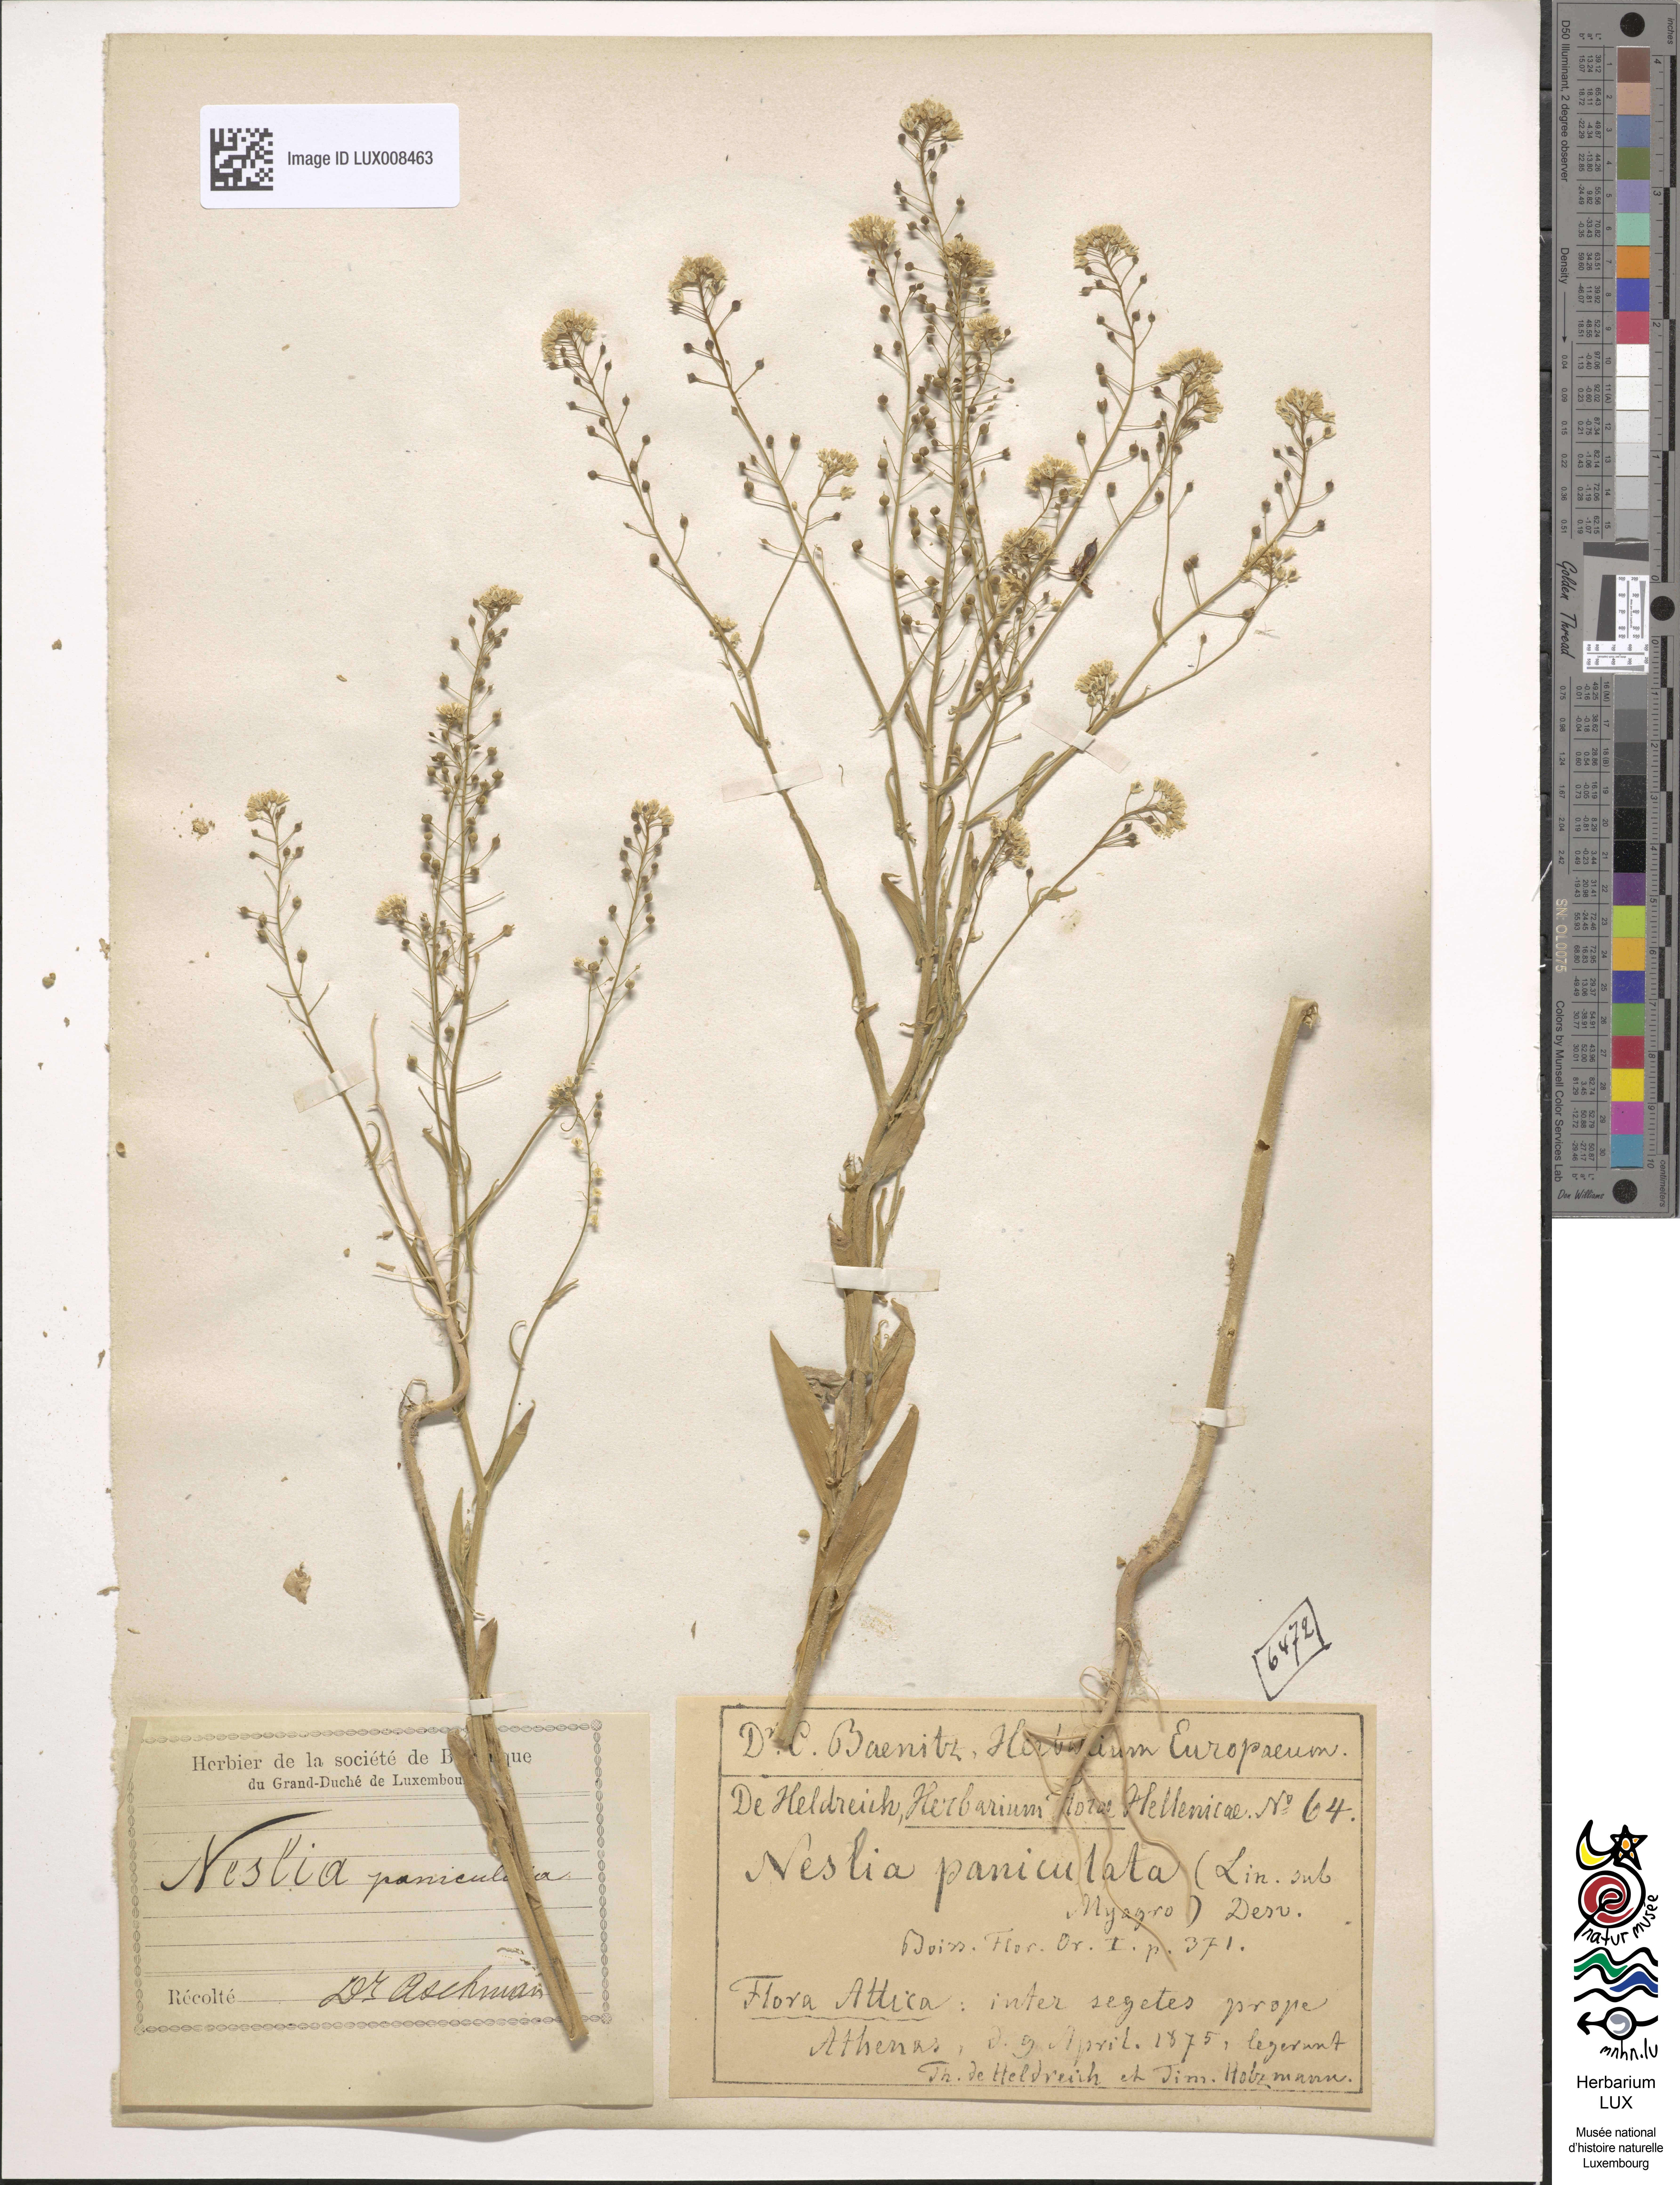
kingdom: Plantae
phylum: Tracheophyta
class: Magnoliopsida
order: Brassicales
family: Brassicaceae
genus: Neslia
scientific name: Neslia paniculata
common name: Ball mustard
